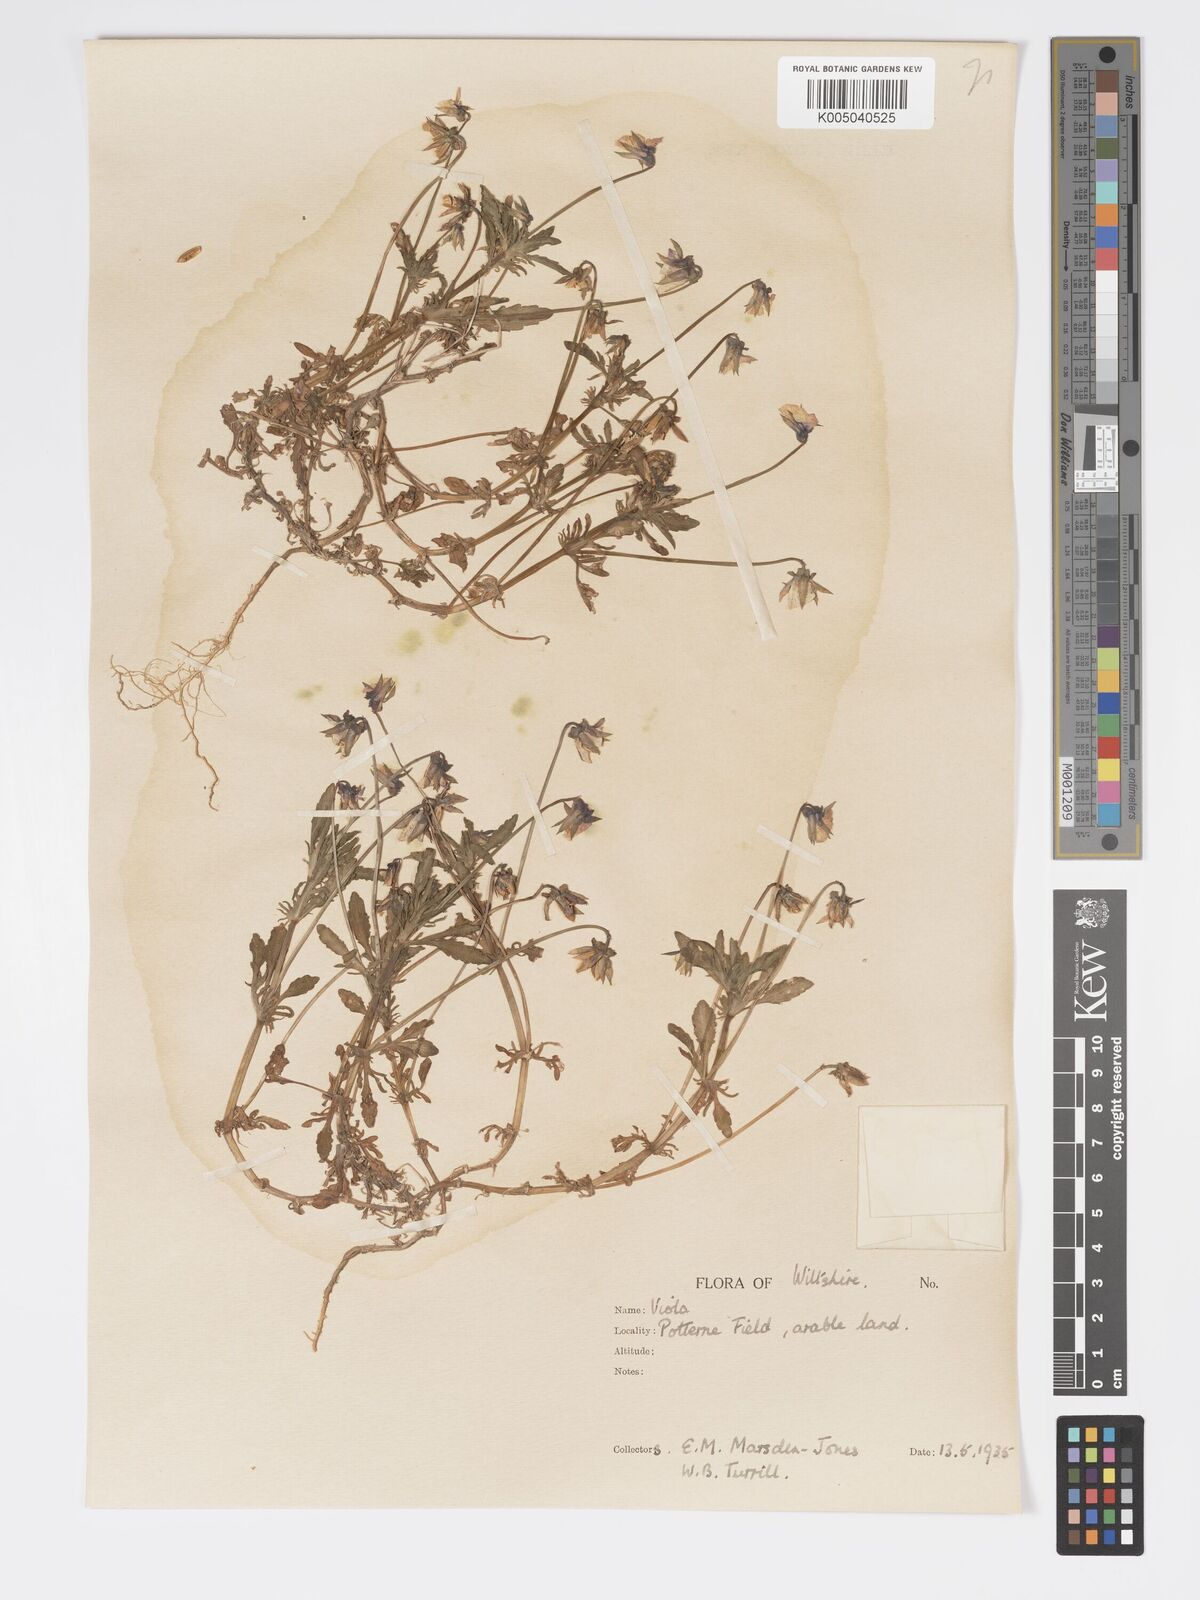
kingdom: Plantae
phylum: Tracheophyta
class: Magnoliopsida
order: Malpighiales
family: Violaceae
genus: Viola
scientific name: Viola
